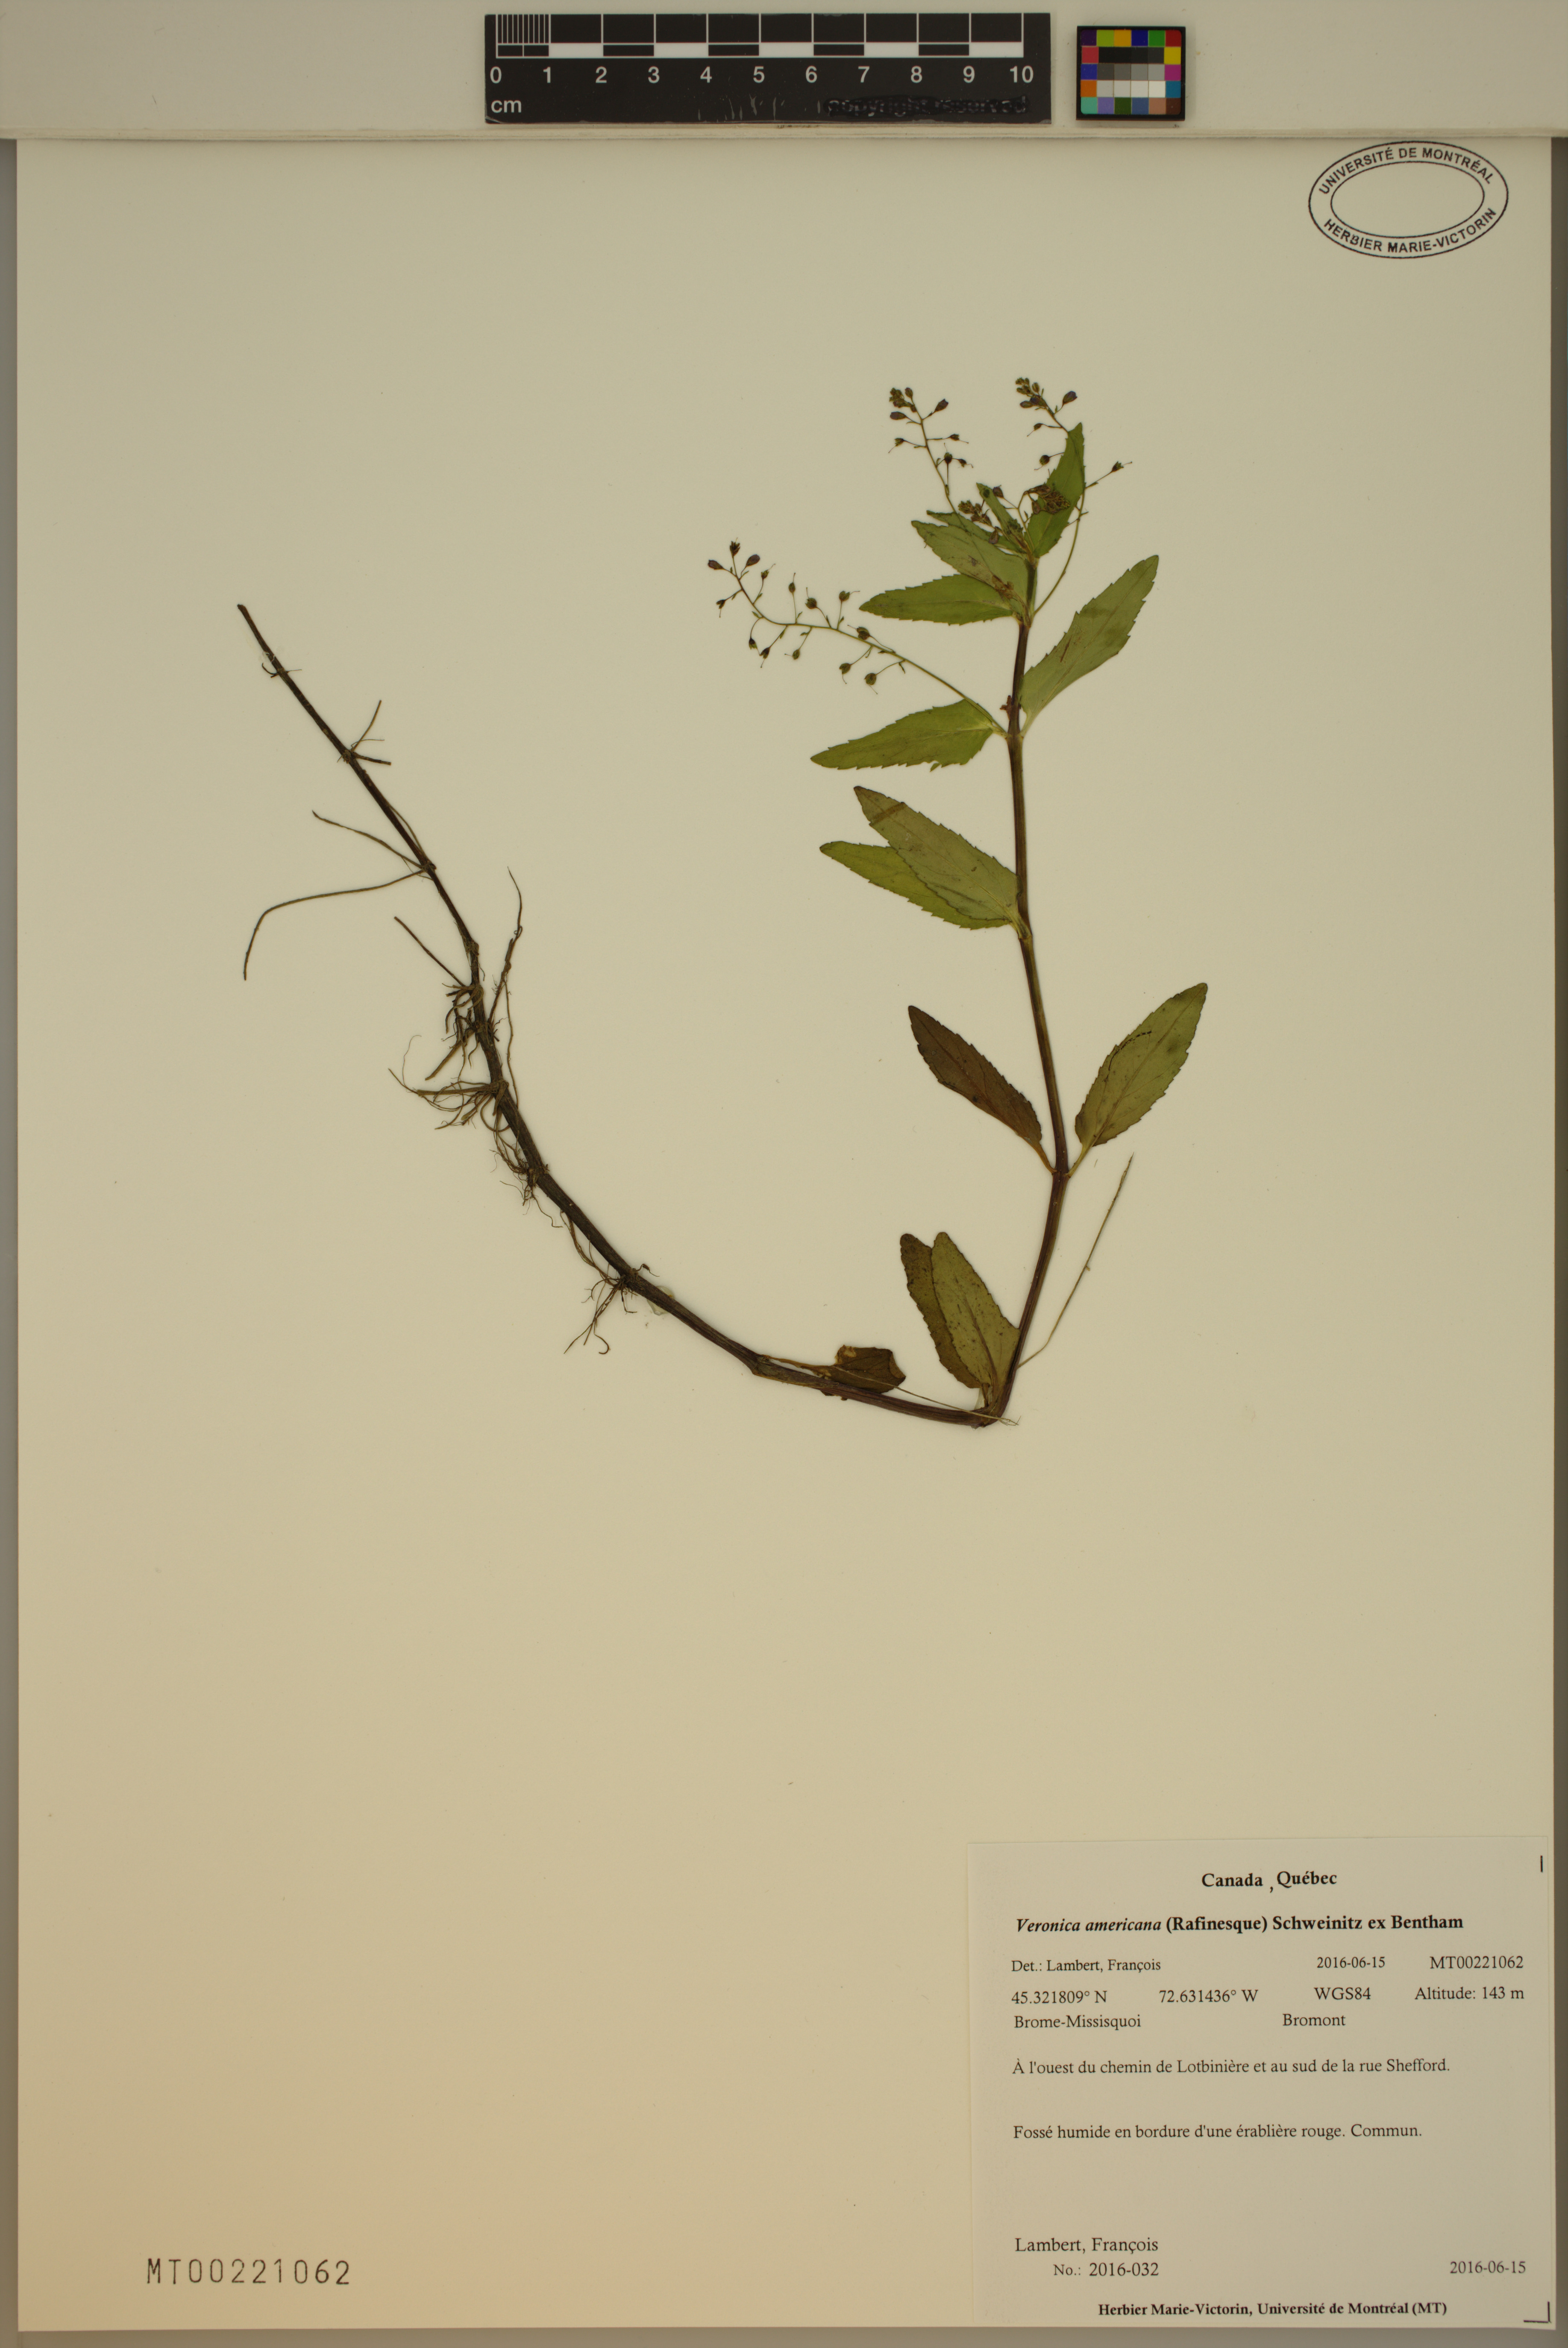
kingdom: Plantae
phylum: Tracheophyta
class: Magnoliopsida
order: Lamiales
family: Plantaginaceae
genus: Veronica
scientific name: Veronica americana
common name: American brooklime
